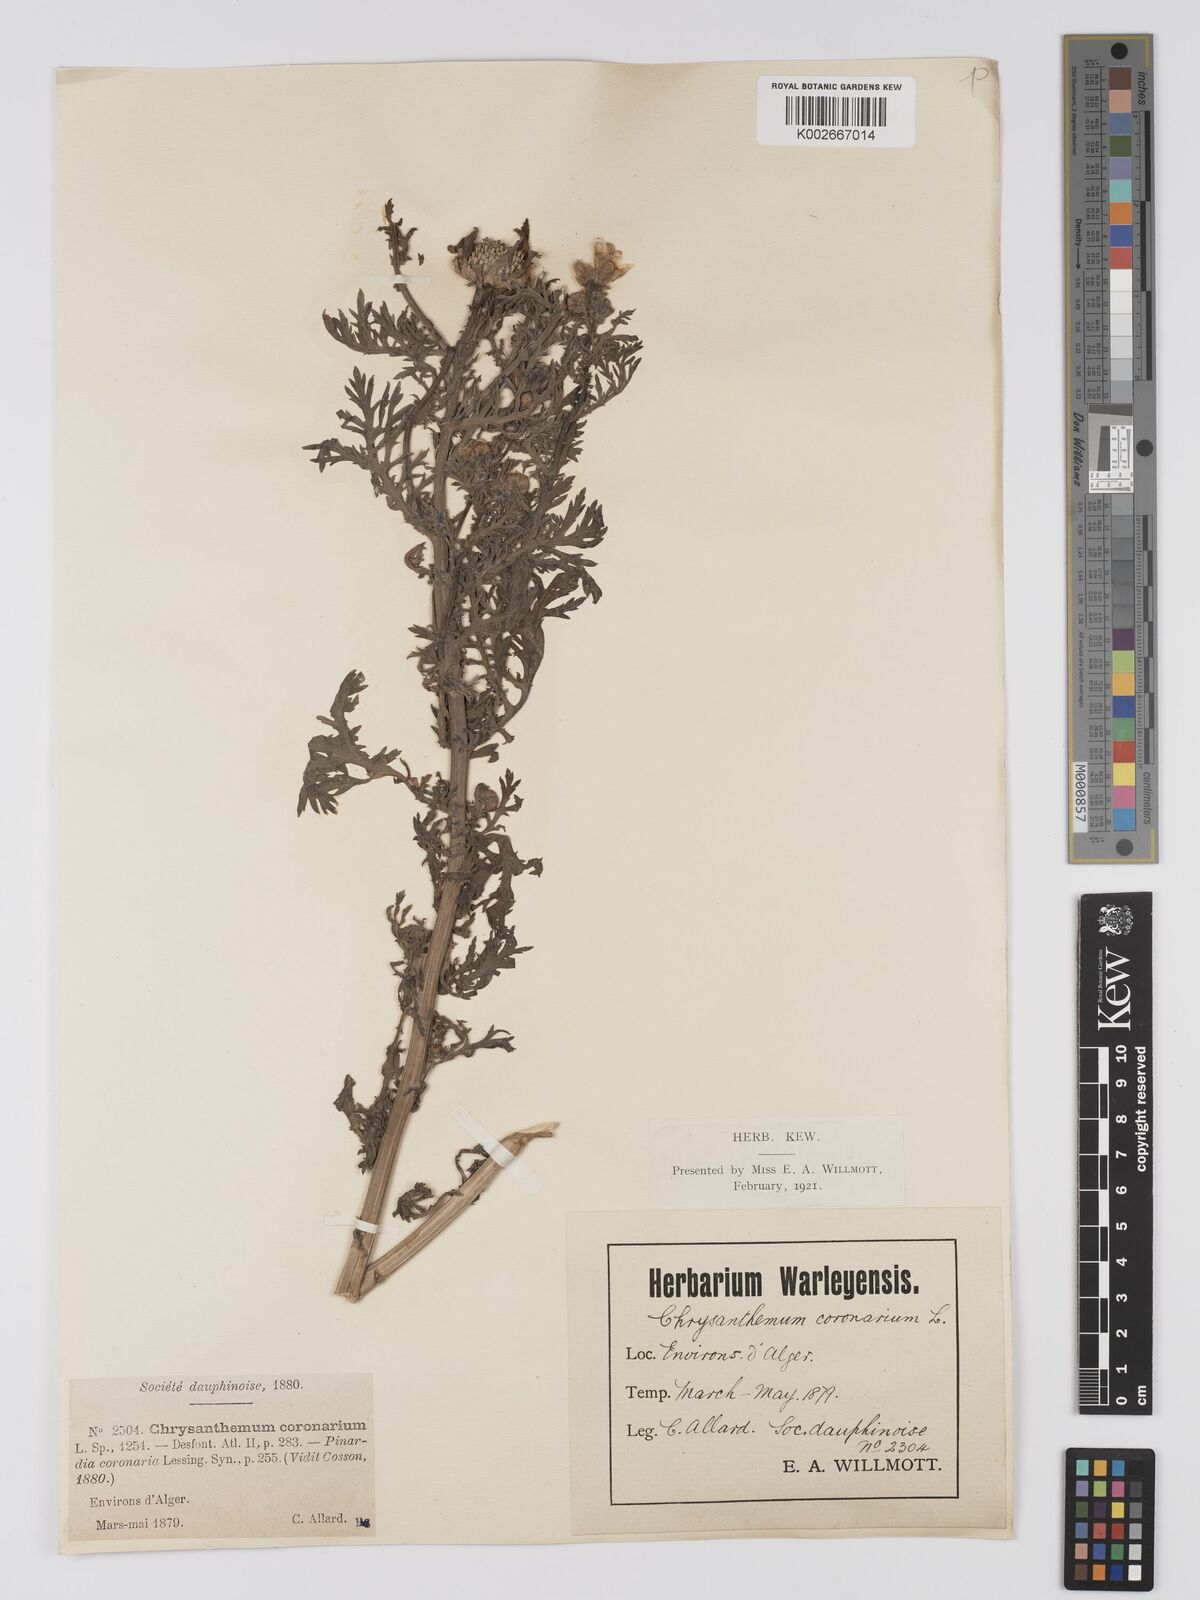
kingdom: Plantae
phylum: Tracheophyta
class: Magnoliopsida
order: Asterales
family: Asteraceae
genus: Glebionis
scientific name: Glebionis
